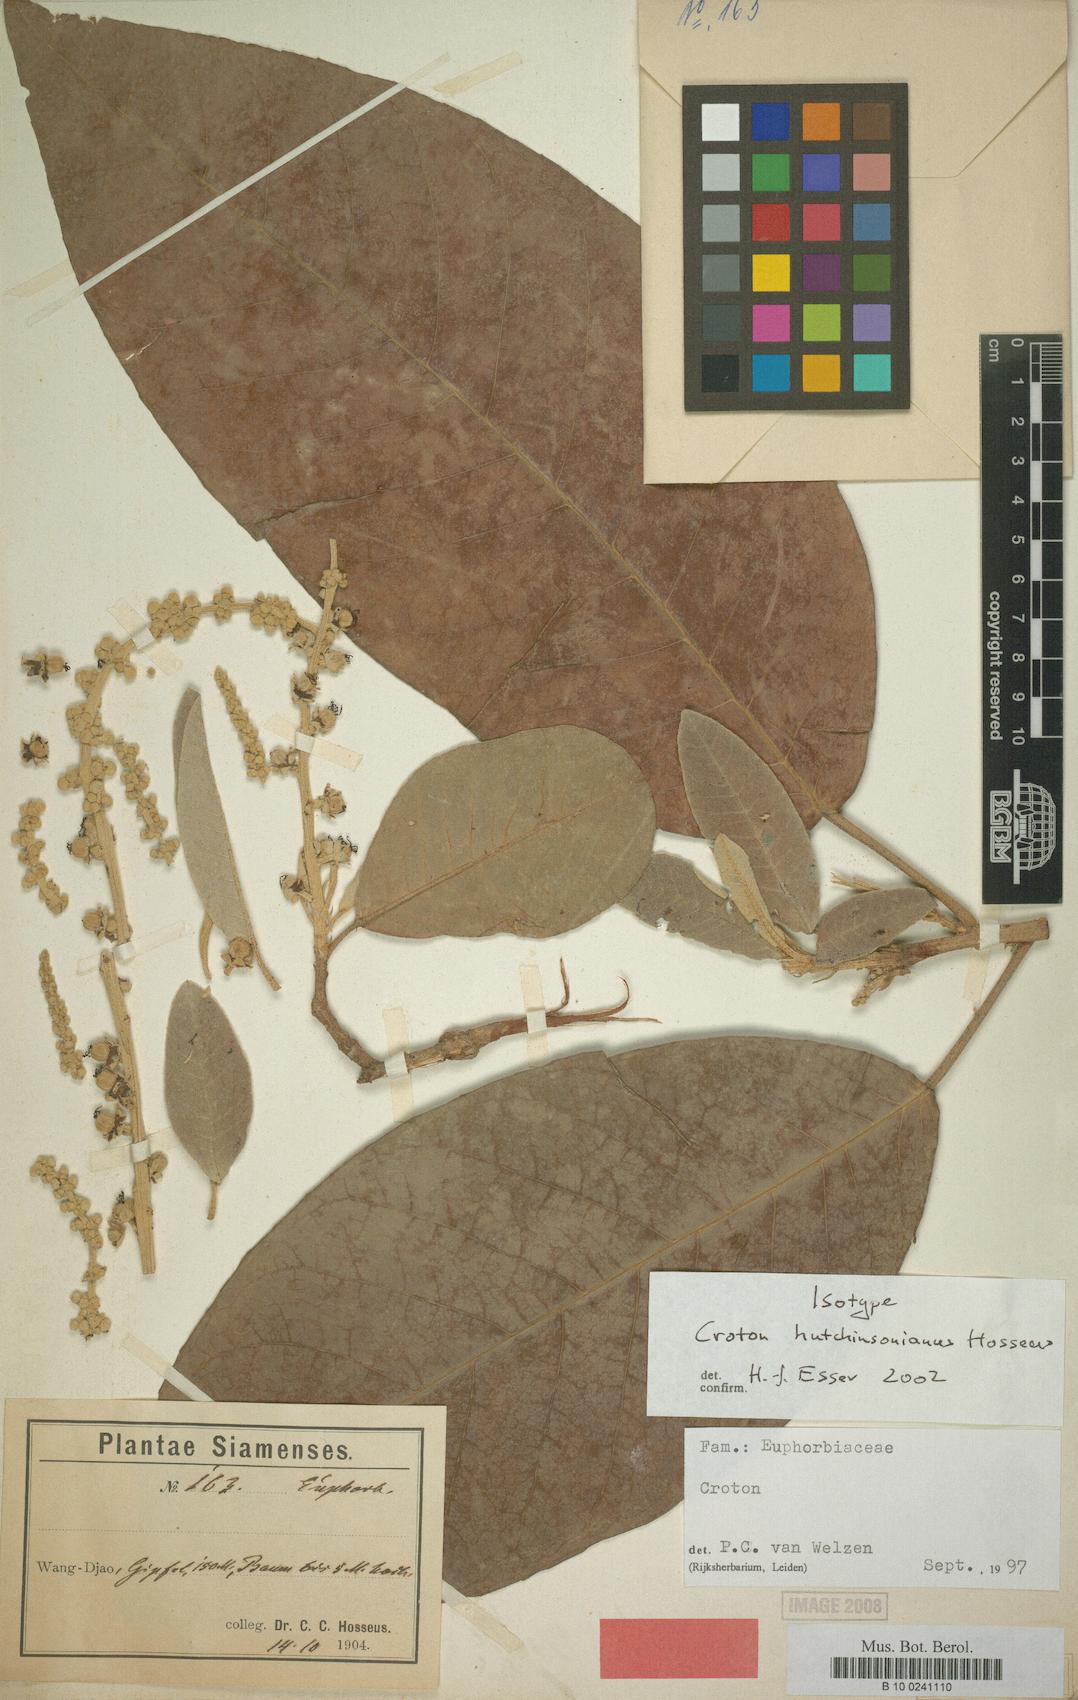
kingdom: Plantae
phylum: Tracheophyta
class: Magnoliopsida
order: Malpighiales
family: Euphorbiaceae
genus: Croton
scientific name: Croton hutchinsonianus
